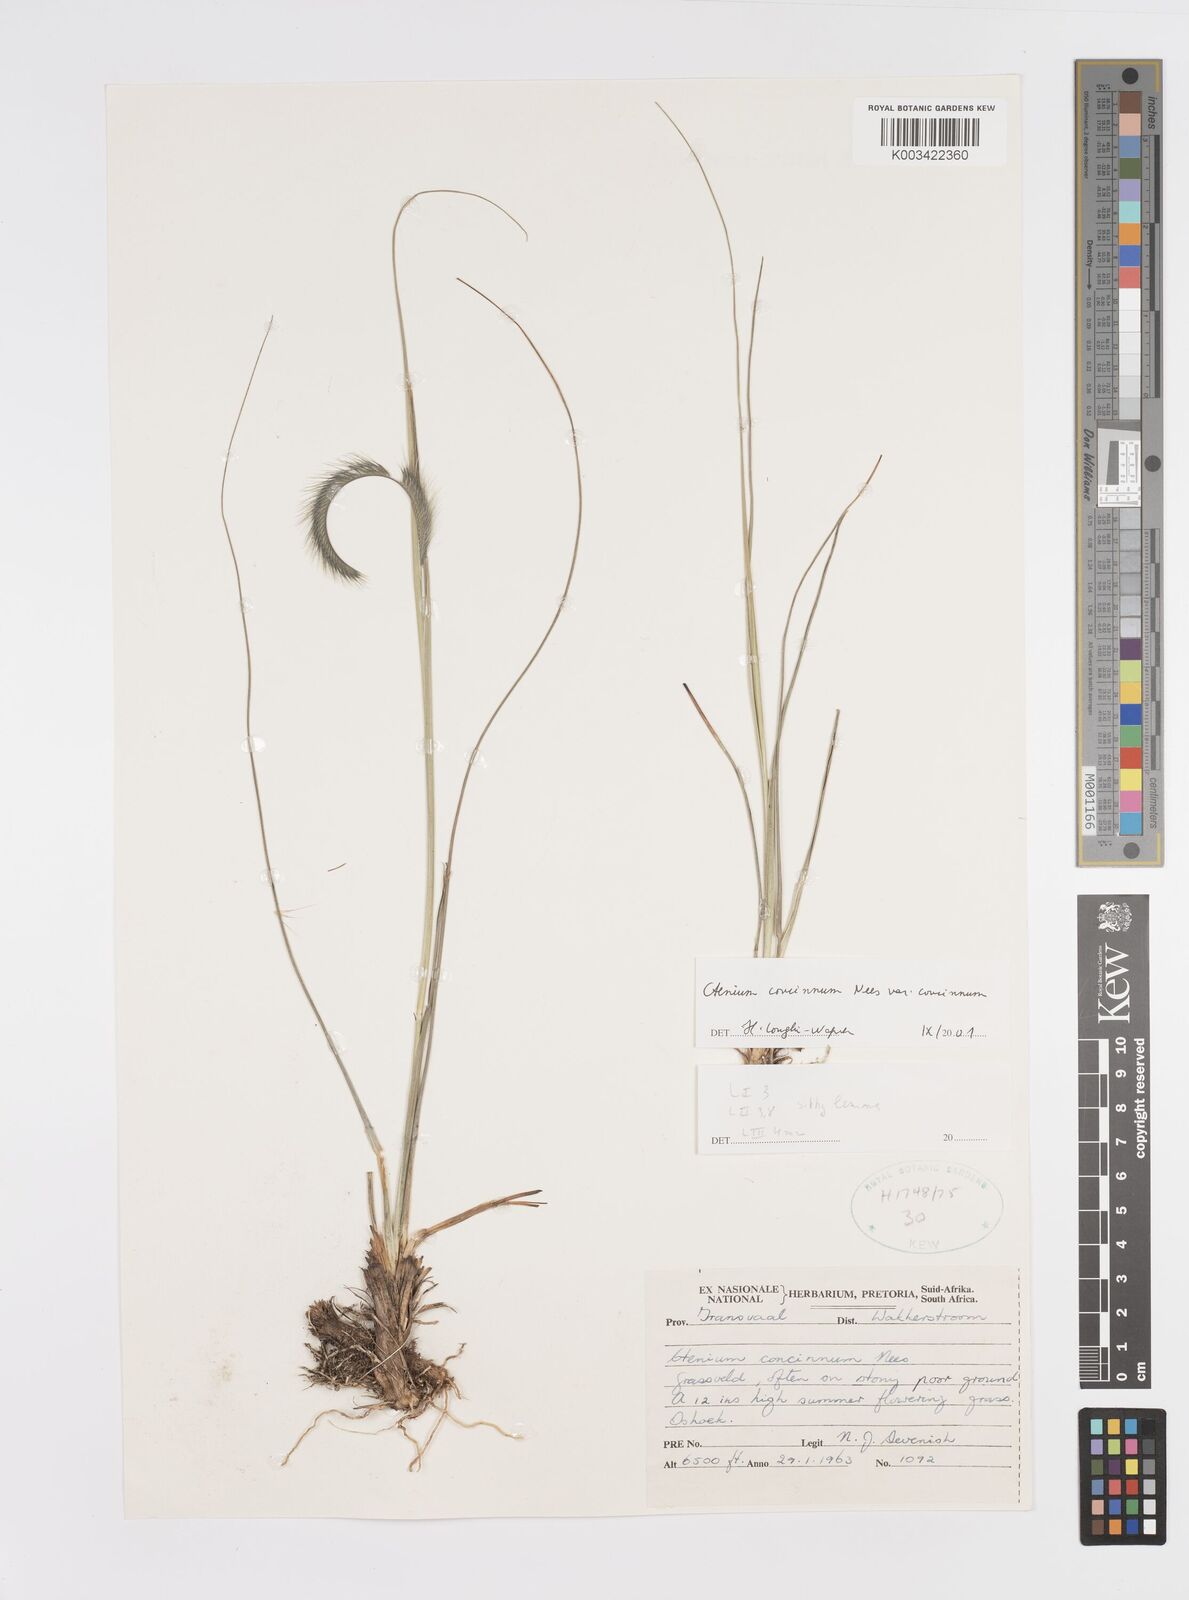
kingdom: Plantae
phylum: Tracheophyta
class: Liliopsida
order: Poales
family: Poaceae
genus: Ctenium
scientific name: Ctenium concinnum
